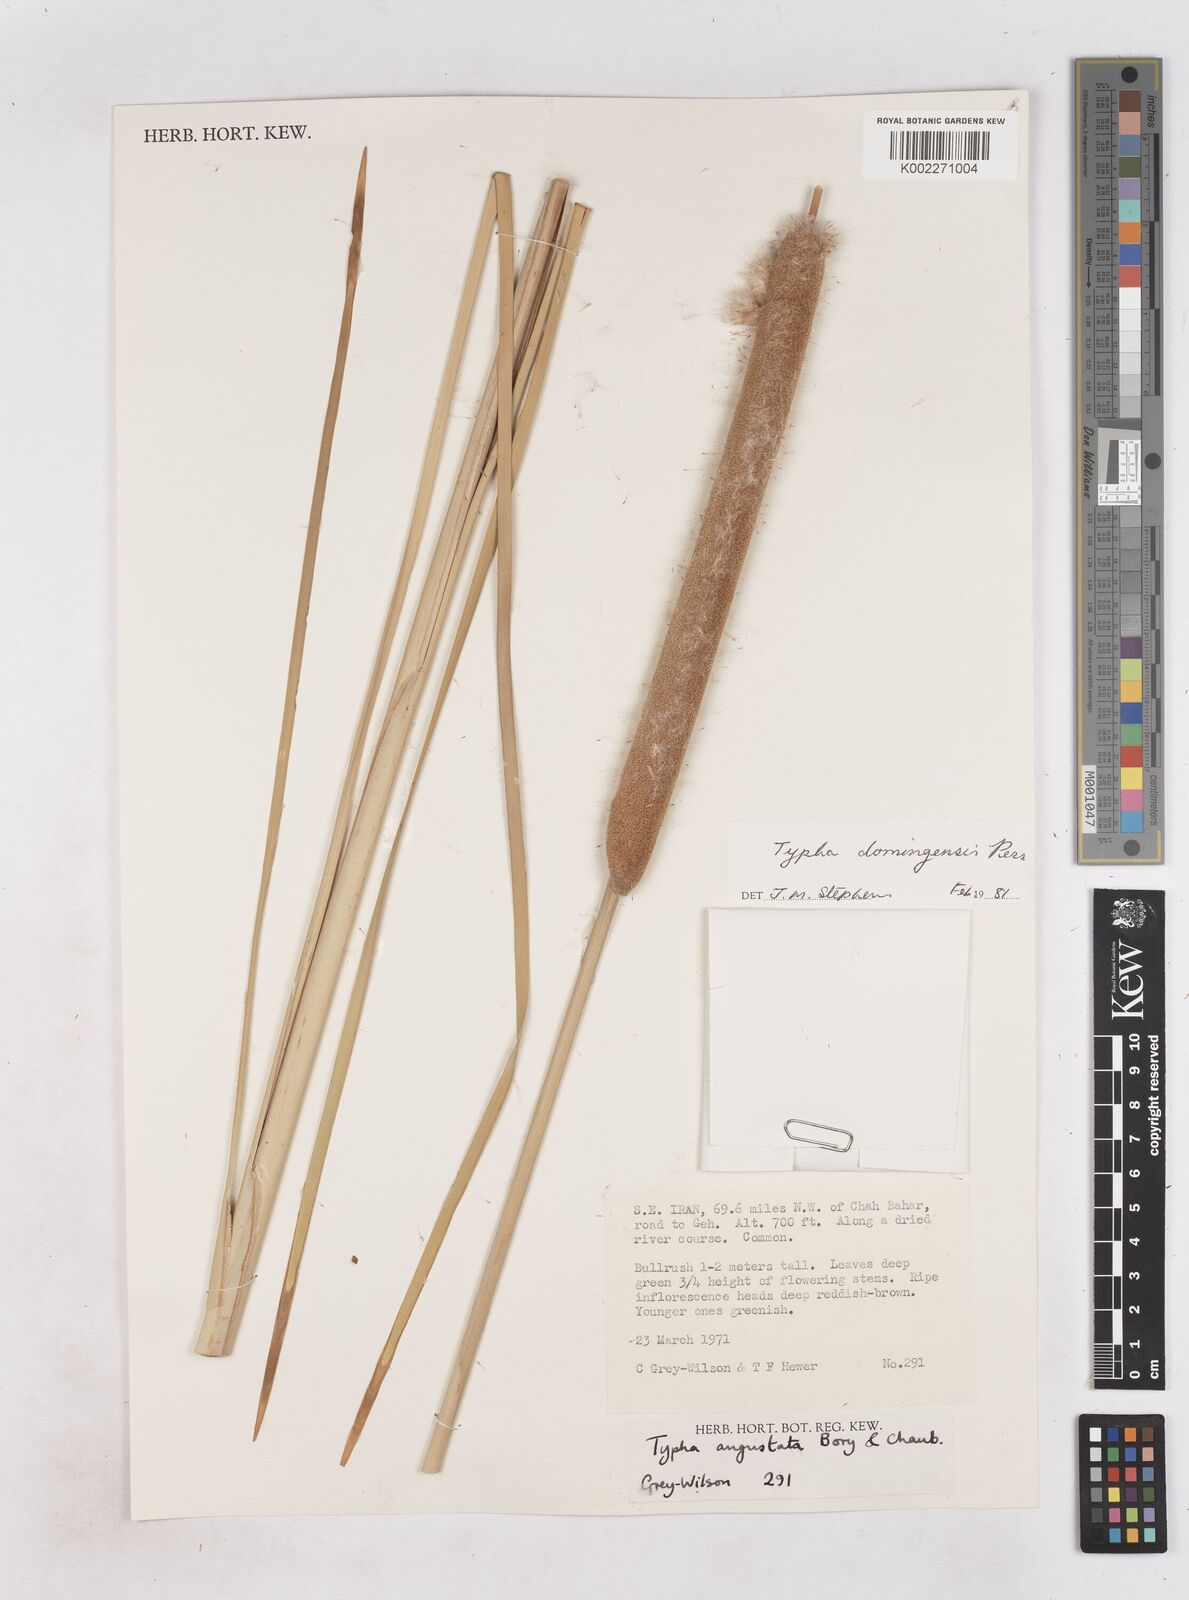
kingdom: Plantae
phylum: Tracheophyta
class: Liliopsida
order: Poales
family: Typhaceae
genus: Typha
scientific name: Typha domingensis
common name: Southern cattail
